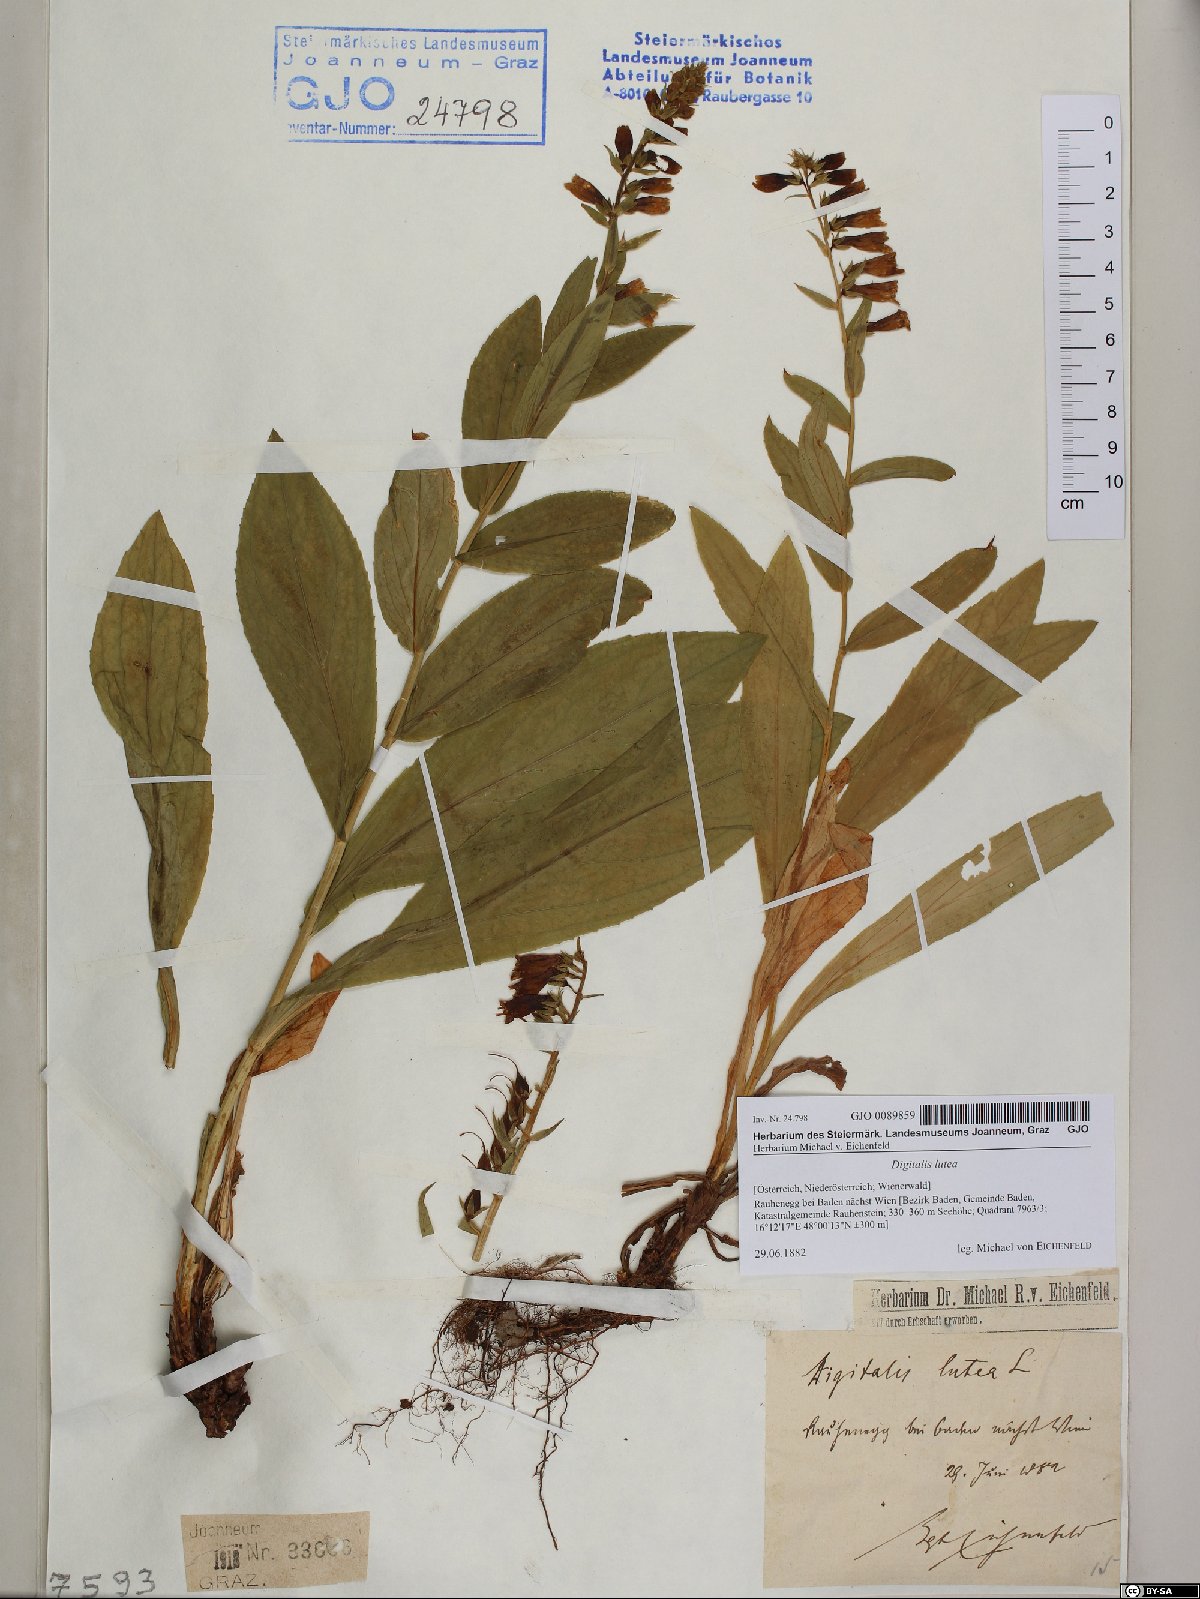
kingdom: Plantae
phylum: Tracheophyta
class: Magnoliopsida
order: Lamiales
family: Plantaginaceae
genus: Digitalis
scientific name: Digitalis lutea
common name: Straw foxglove
